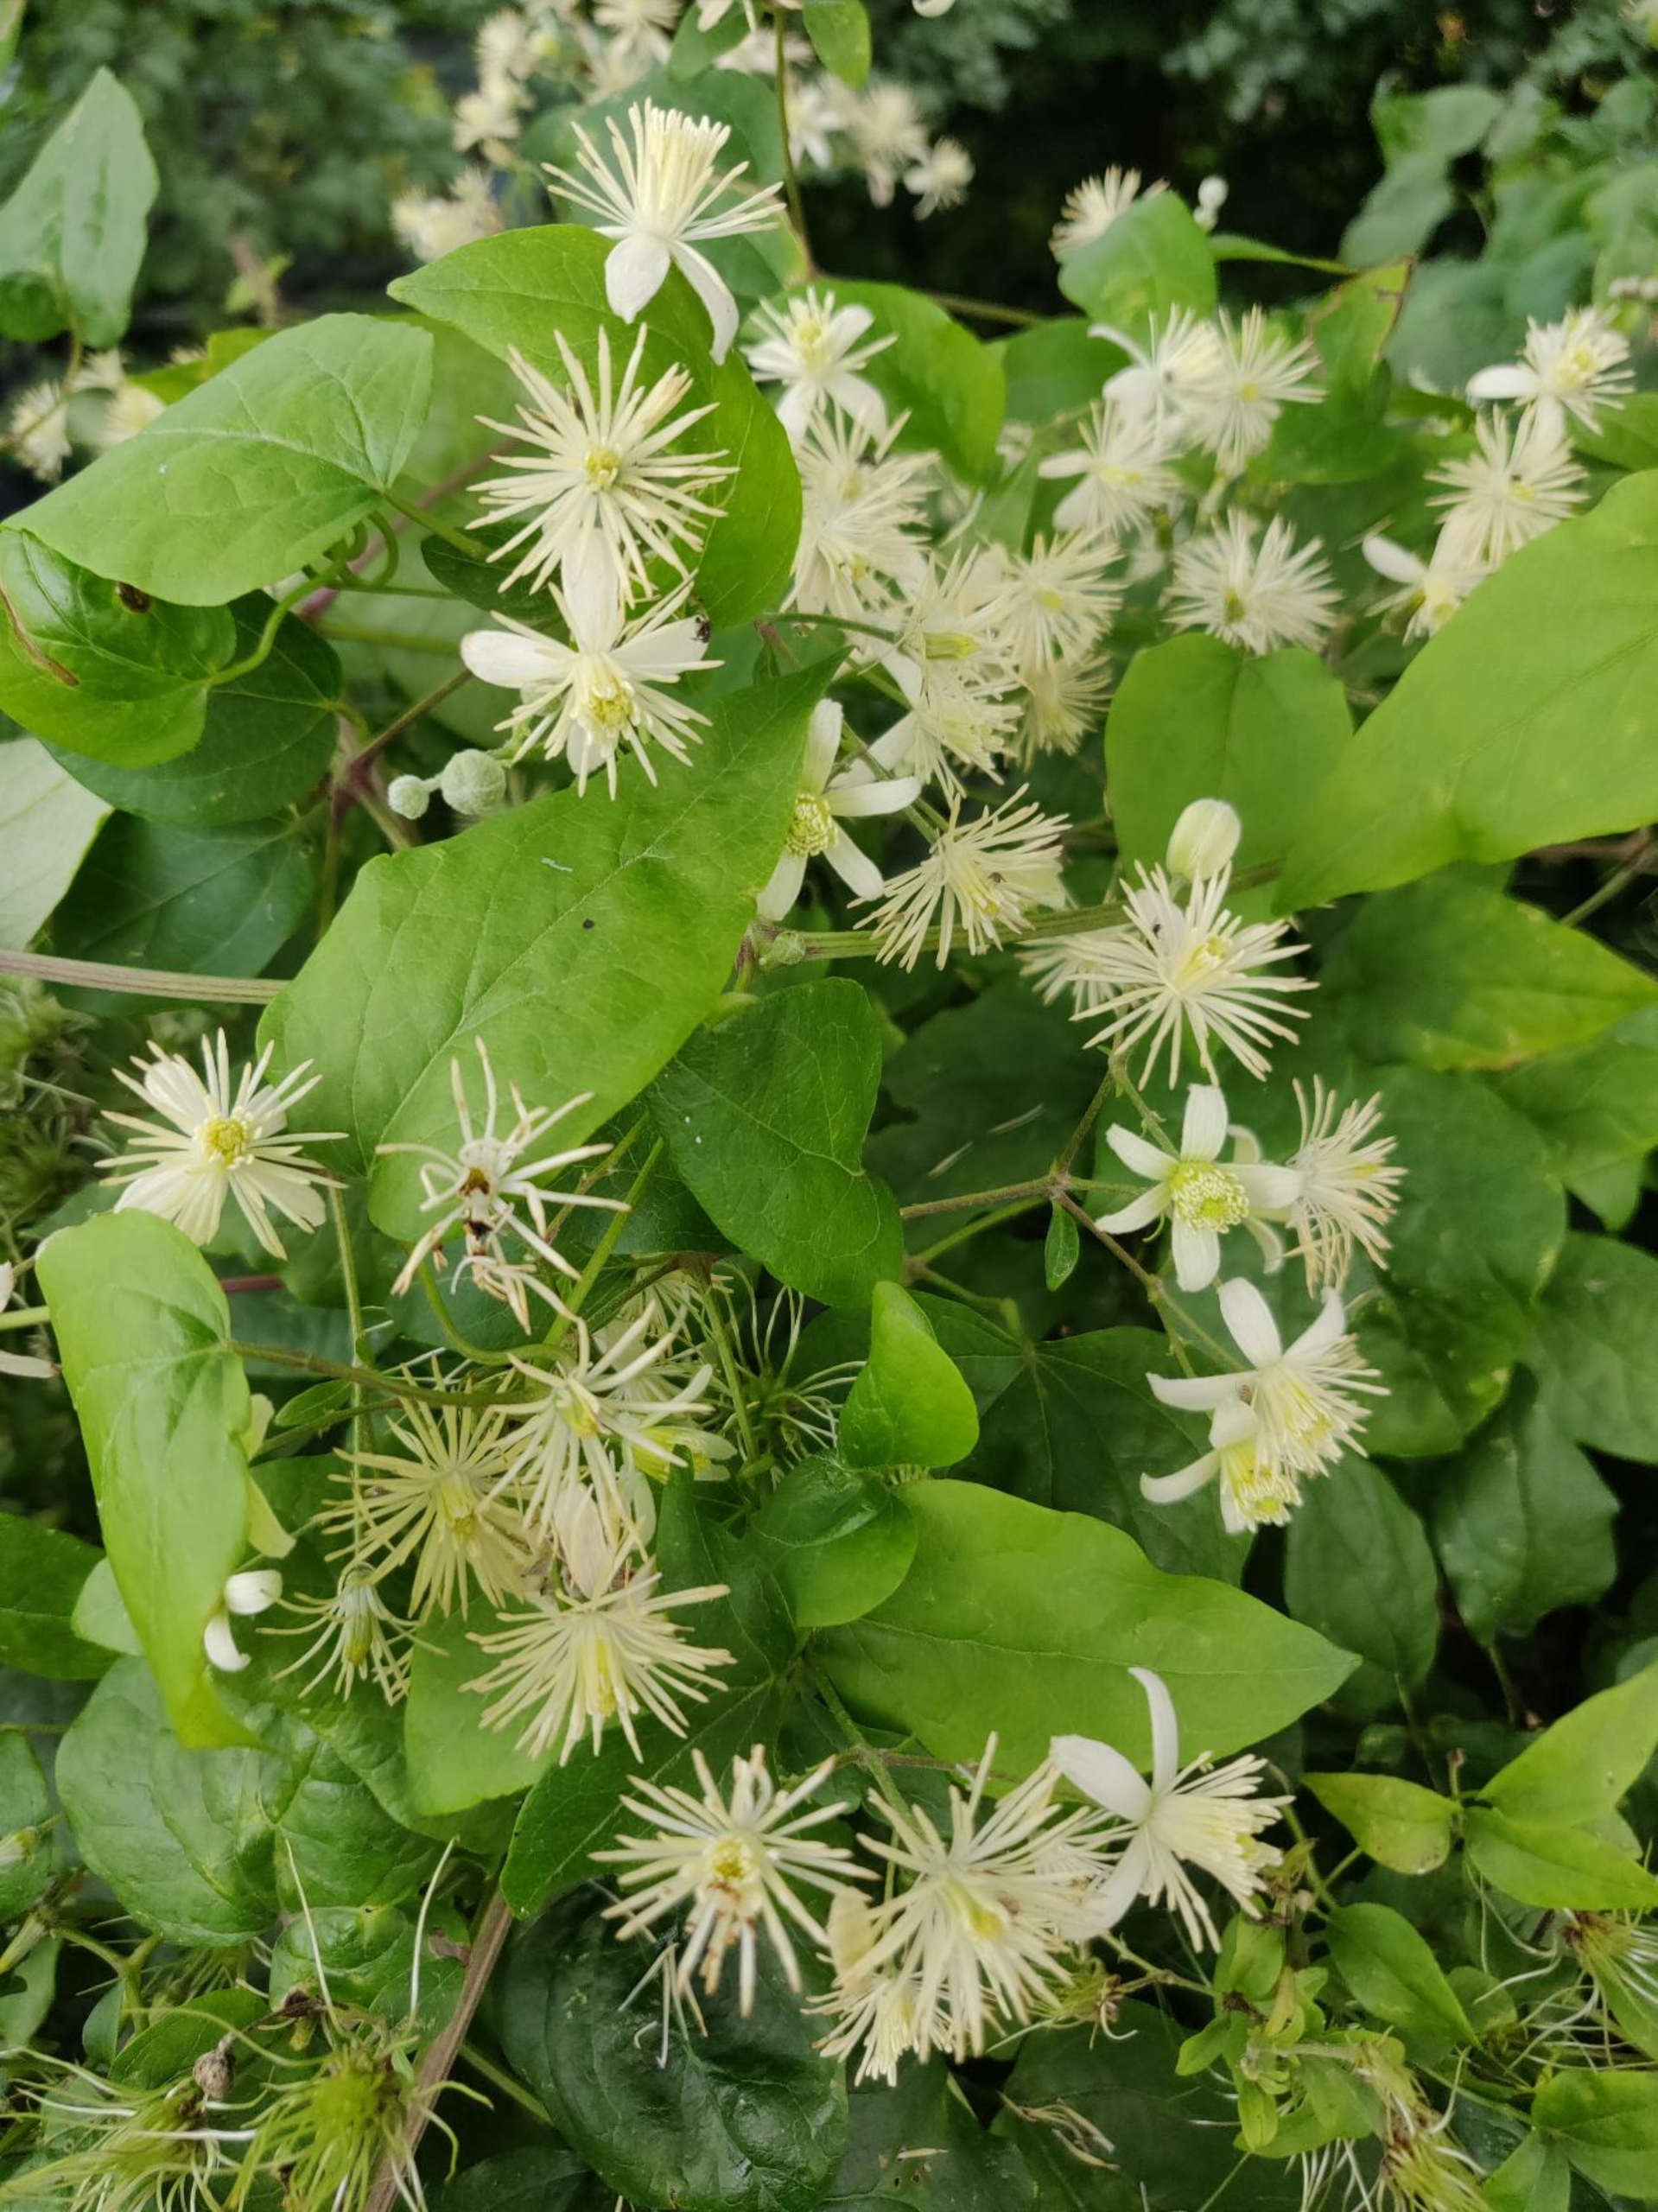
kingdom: Plantae
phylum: Tracheophyta
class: Magnoliopsida
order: Ranunculales
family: Ranunculaceae
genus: Clematis
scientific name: Clematis vitalba
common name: Skovranke
